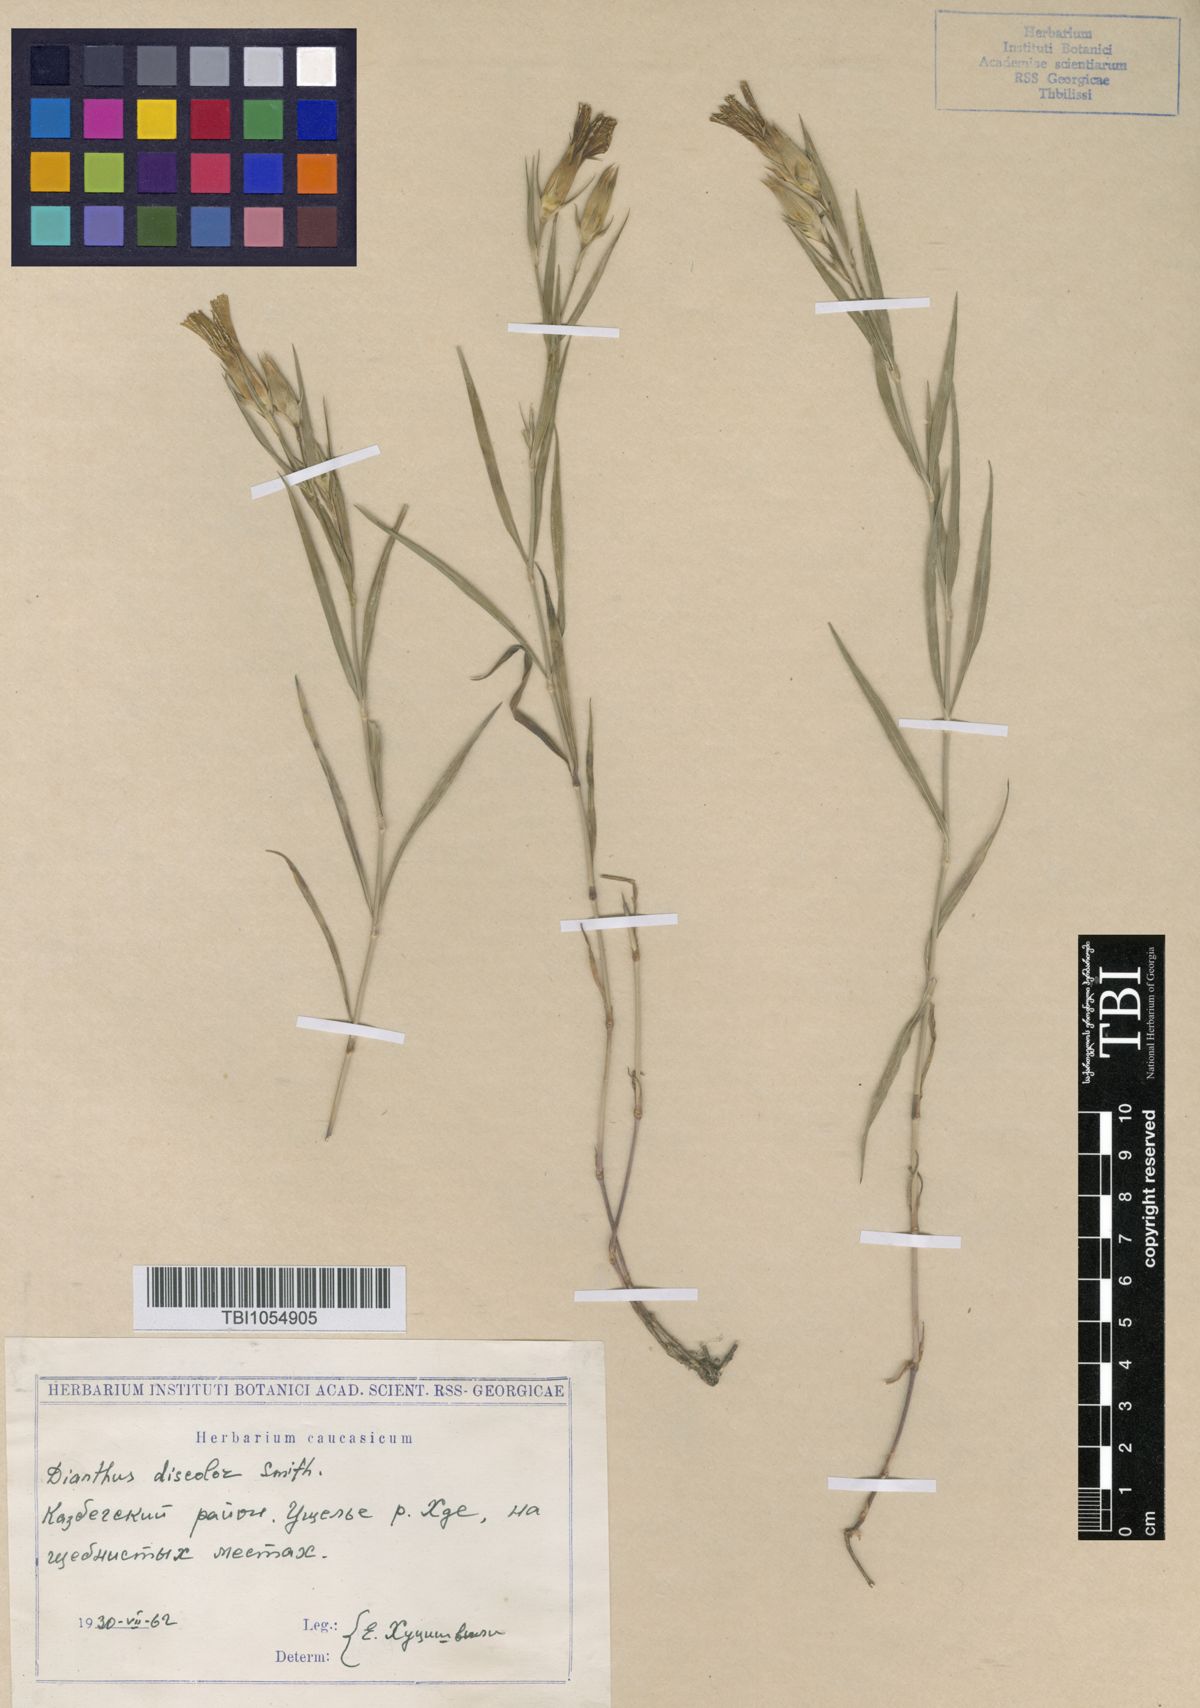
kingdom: Plantae
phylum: Tracheophyta
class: Magnoliopsida
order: Caryophyllales
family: Caryophyllaceae
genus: Dianthus
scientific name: Dianthus caucaseus
